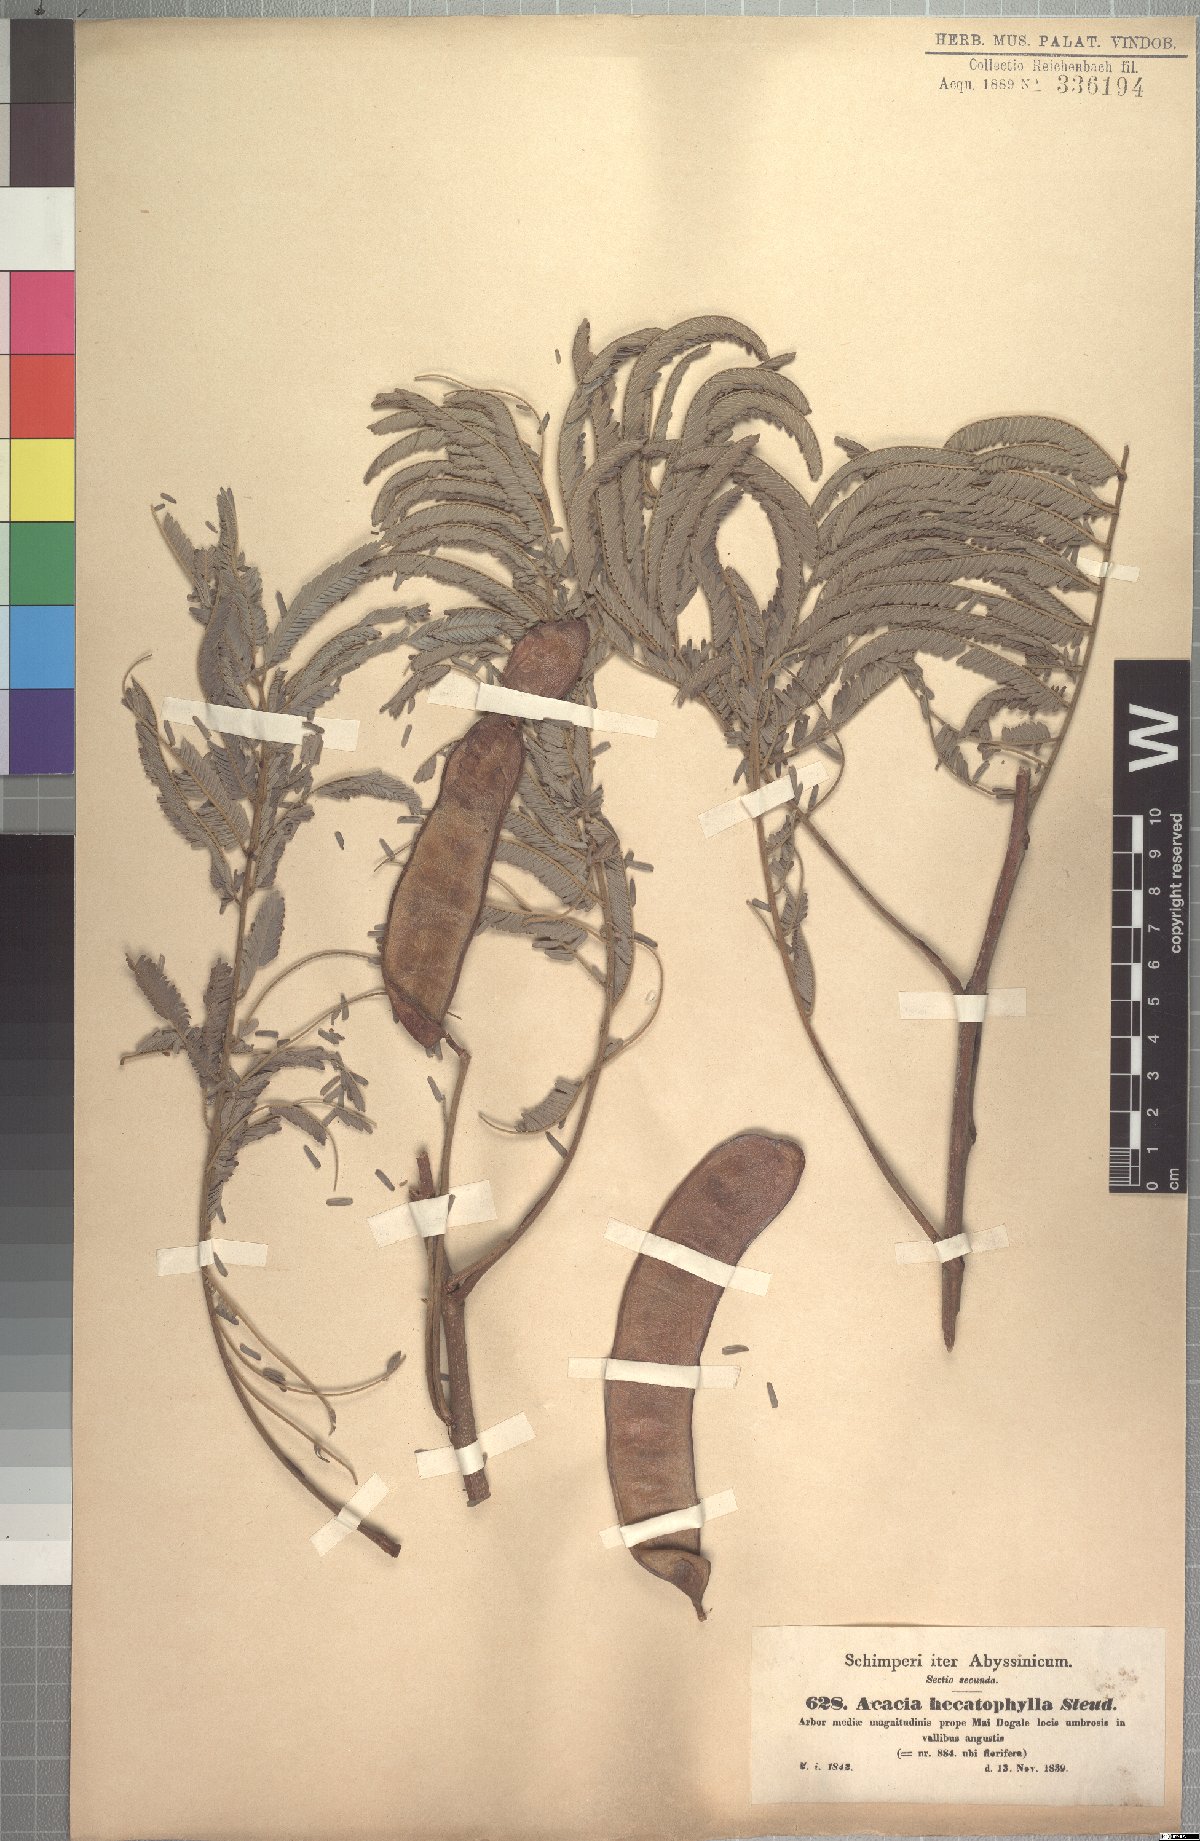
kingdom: Plantae
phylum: Tracheophyta
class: Magnoliopsida
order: Fabales
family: Fabaceae
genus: Senegalia
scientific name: Senegalia hecatophylla
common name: Long pod
